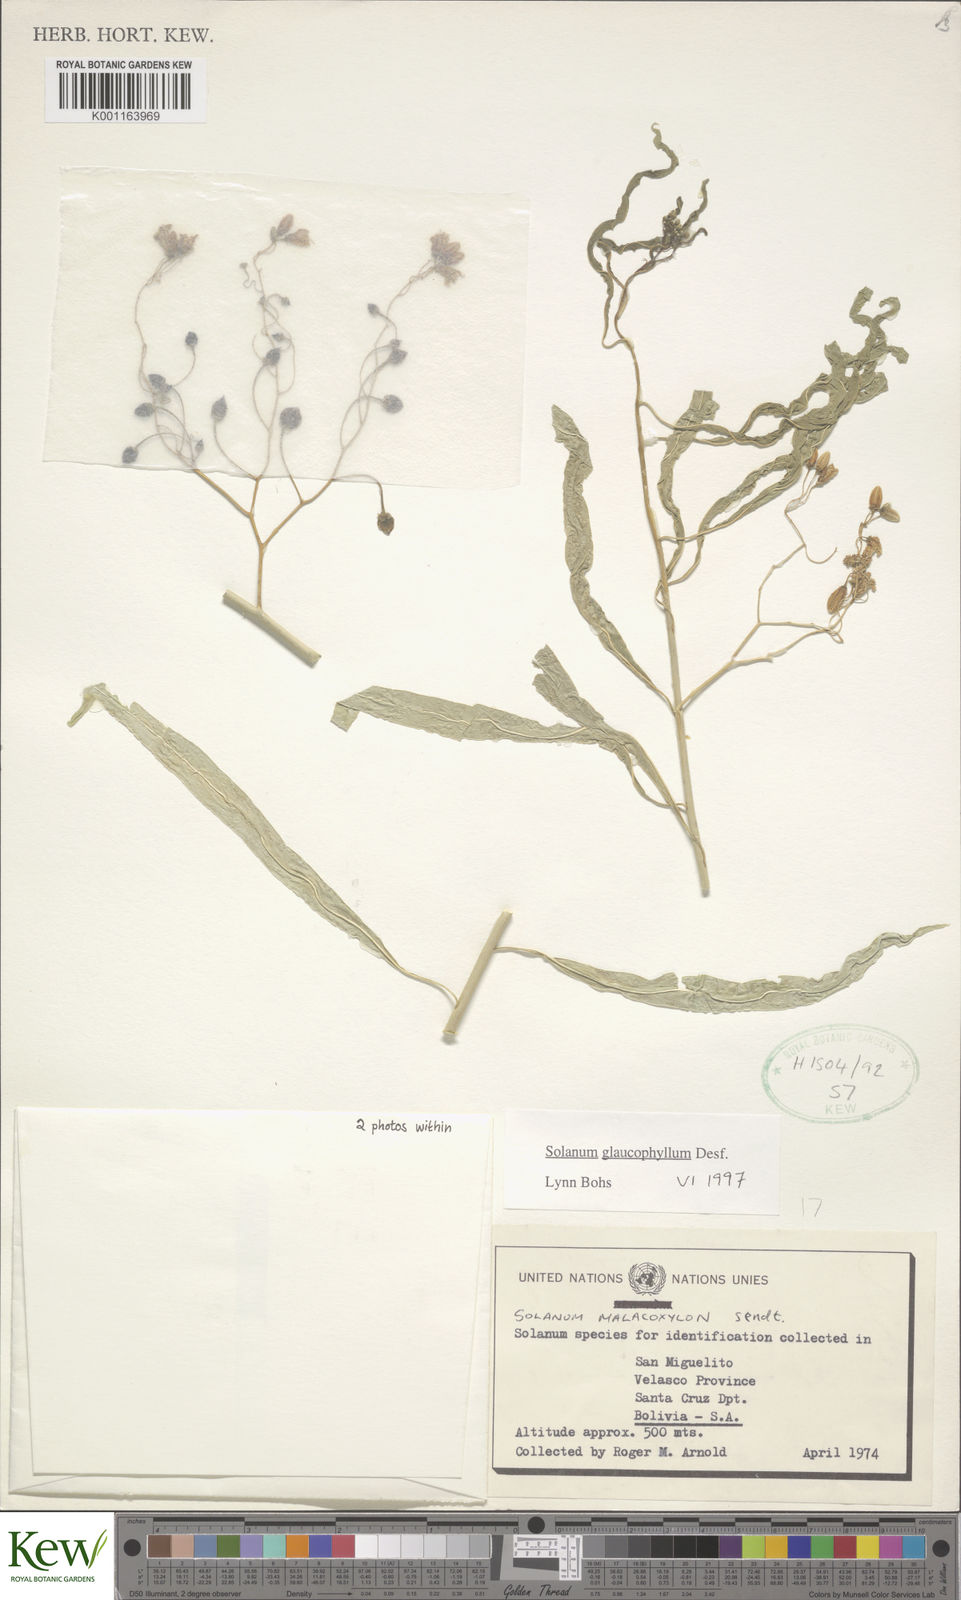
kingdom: Plantae
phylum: Tracheophyta
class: Magnoliopsida
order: Solanales
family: Solanaceae
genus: Solanum
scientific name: Solanum glaucophyllum
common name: Waxyleaf nightshade
